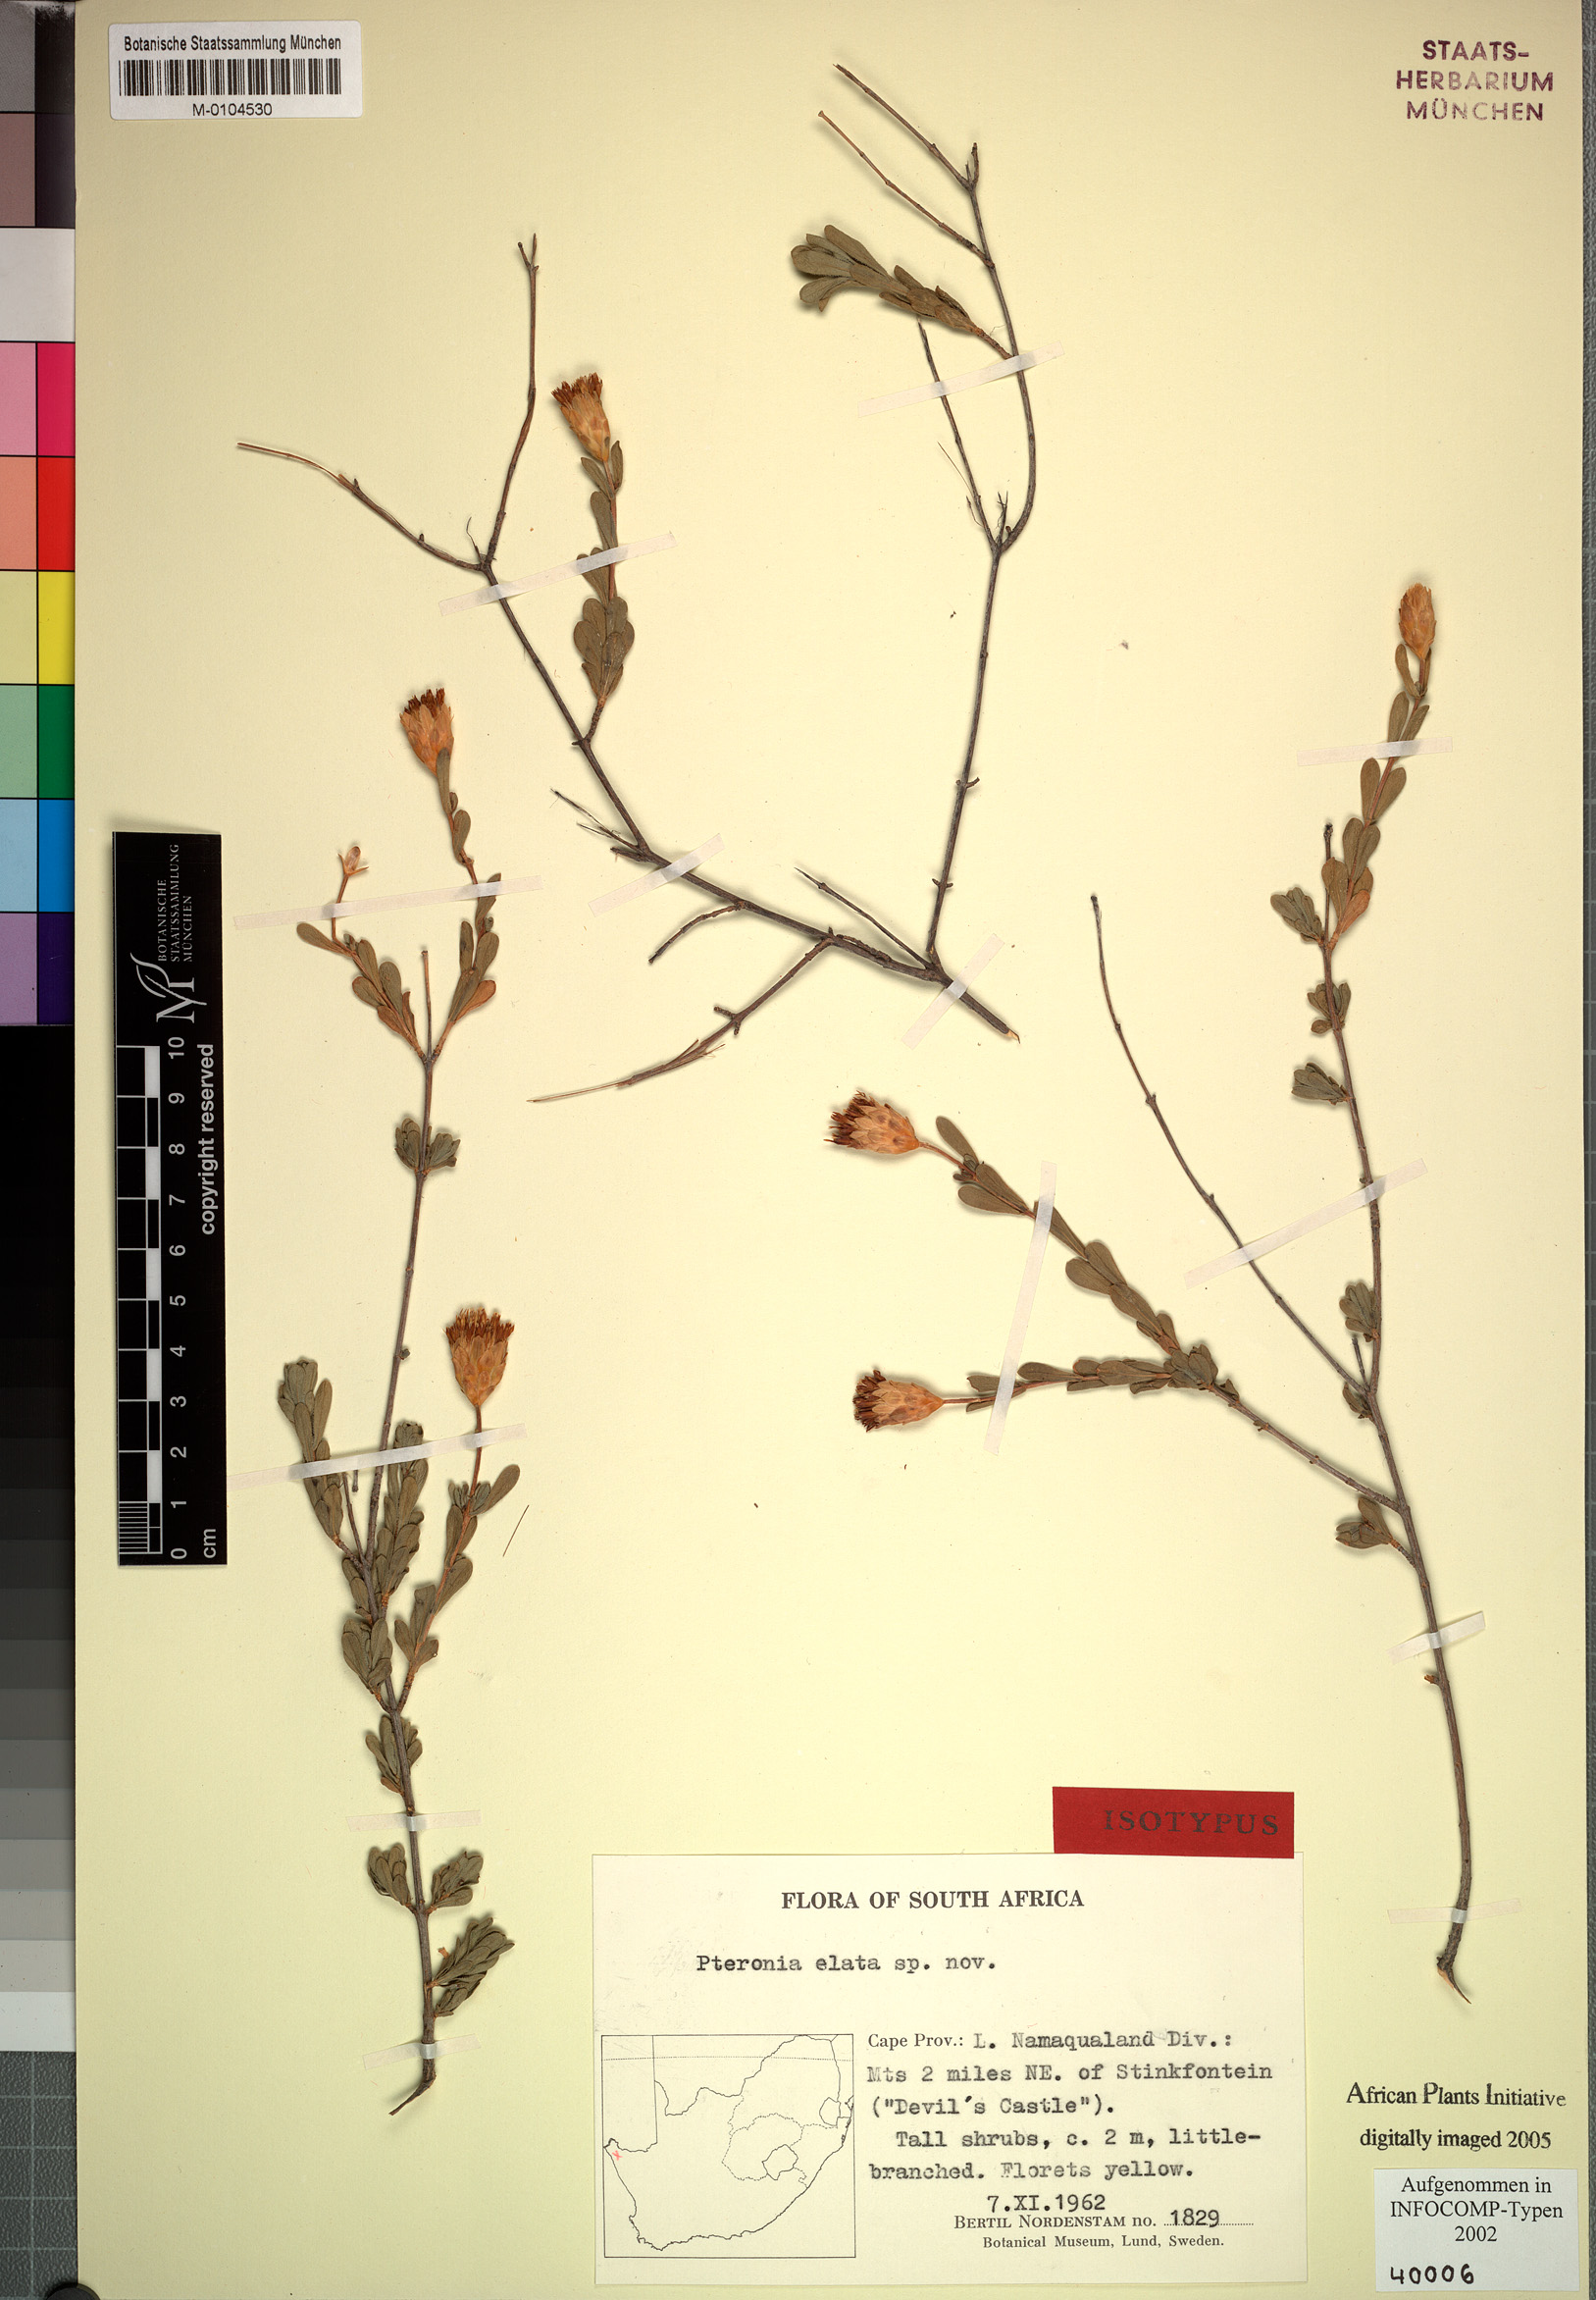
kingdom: Plantae
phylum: Tracheophyta
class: Magnoliopsida
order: Asterales
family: Asteraceae
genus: Pteronia
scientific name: Pteronia elata
